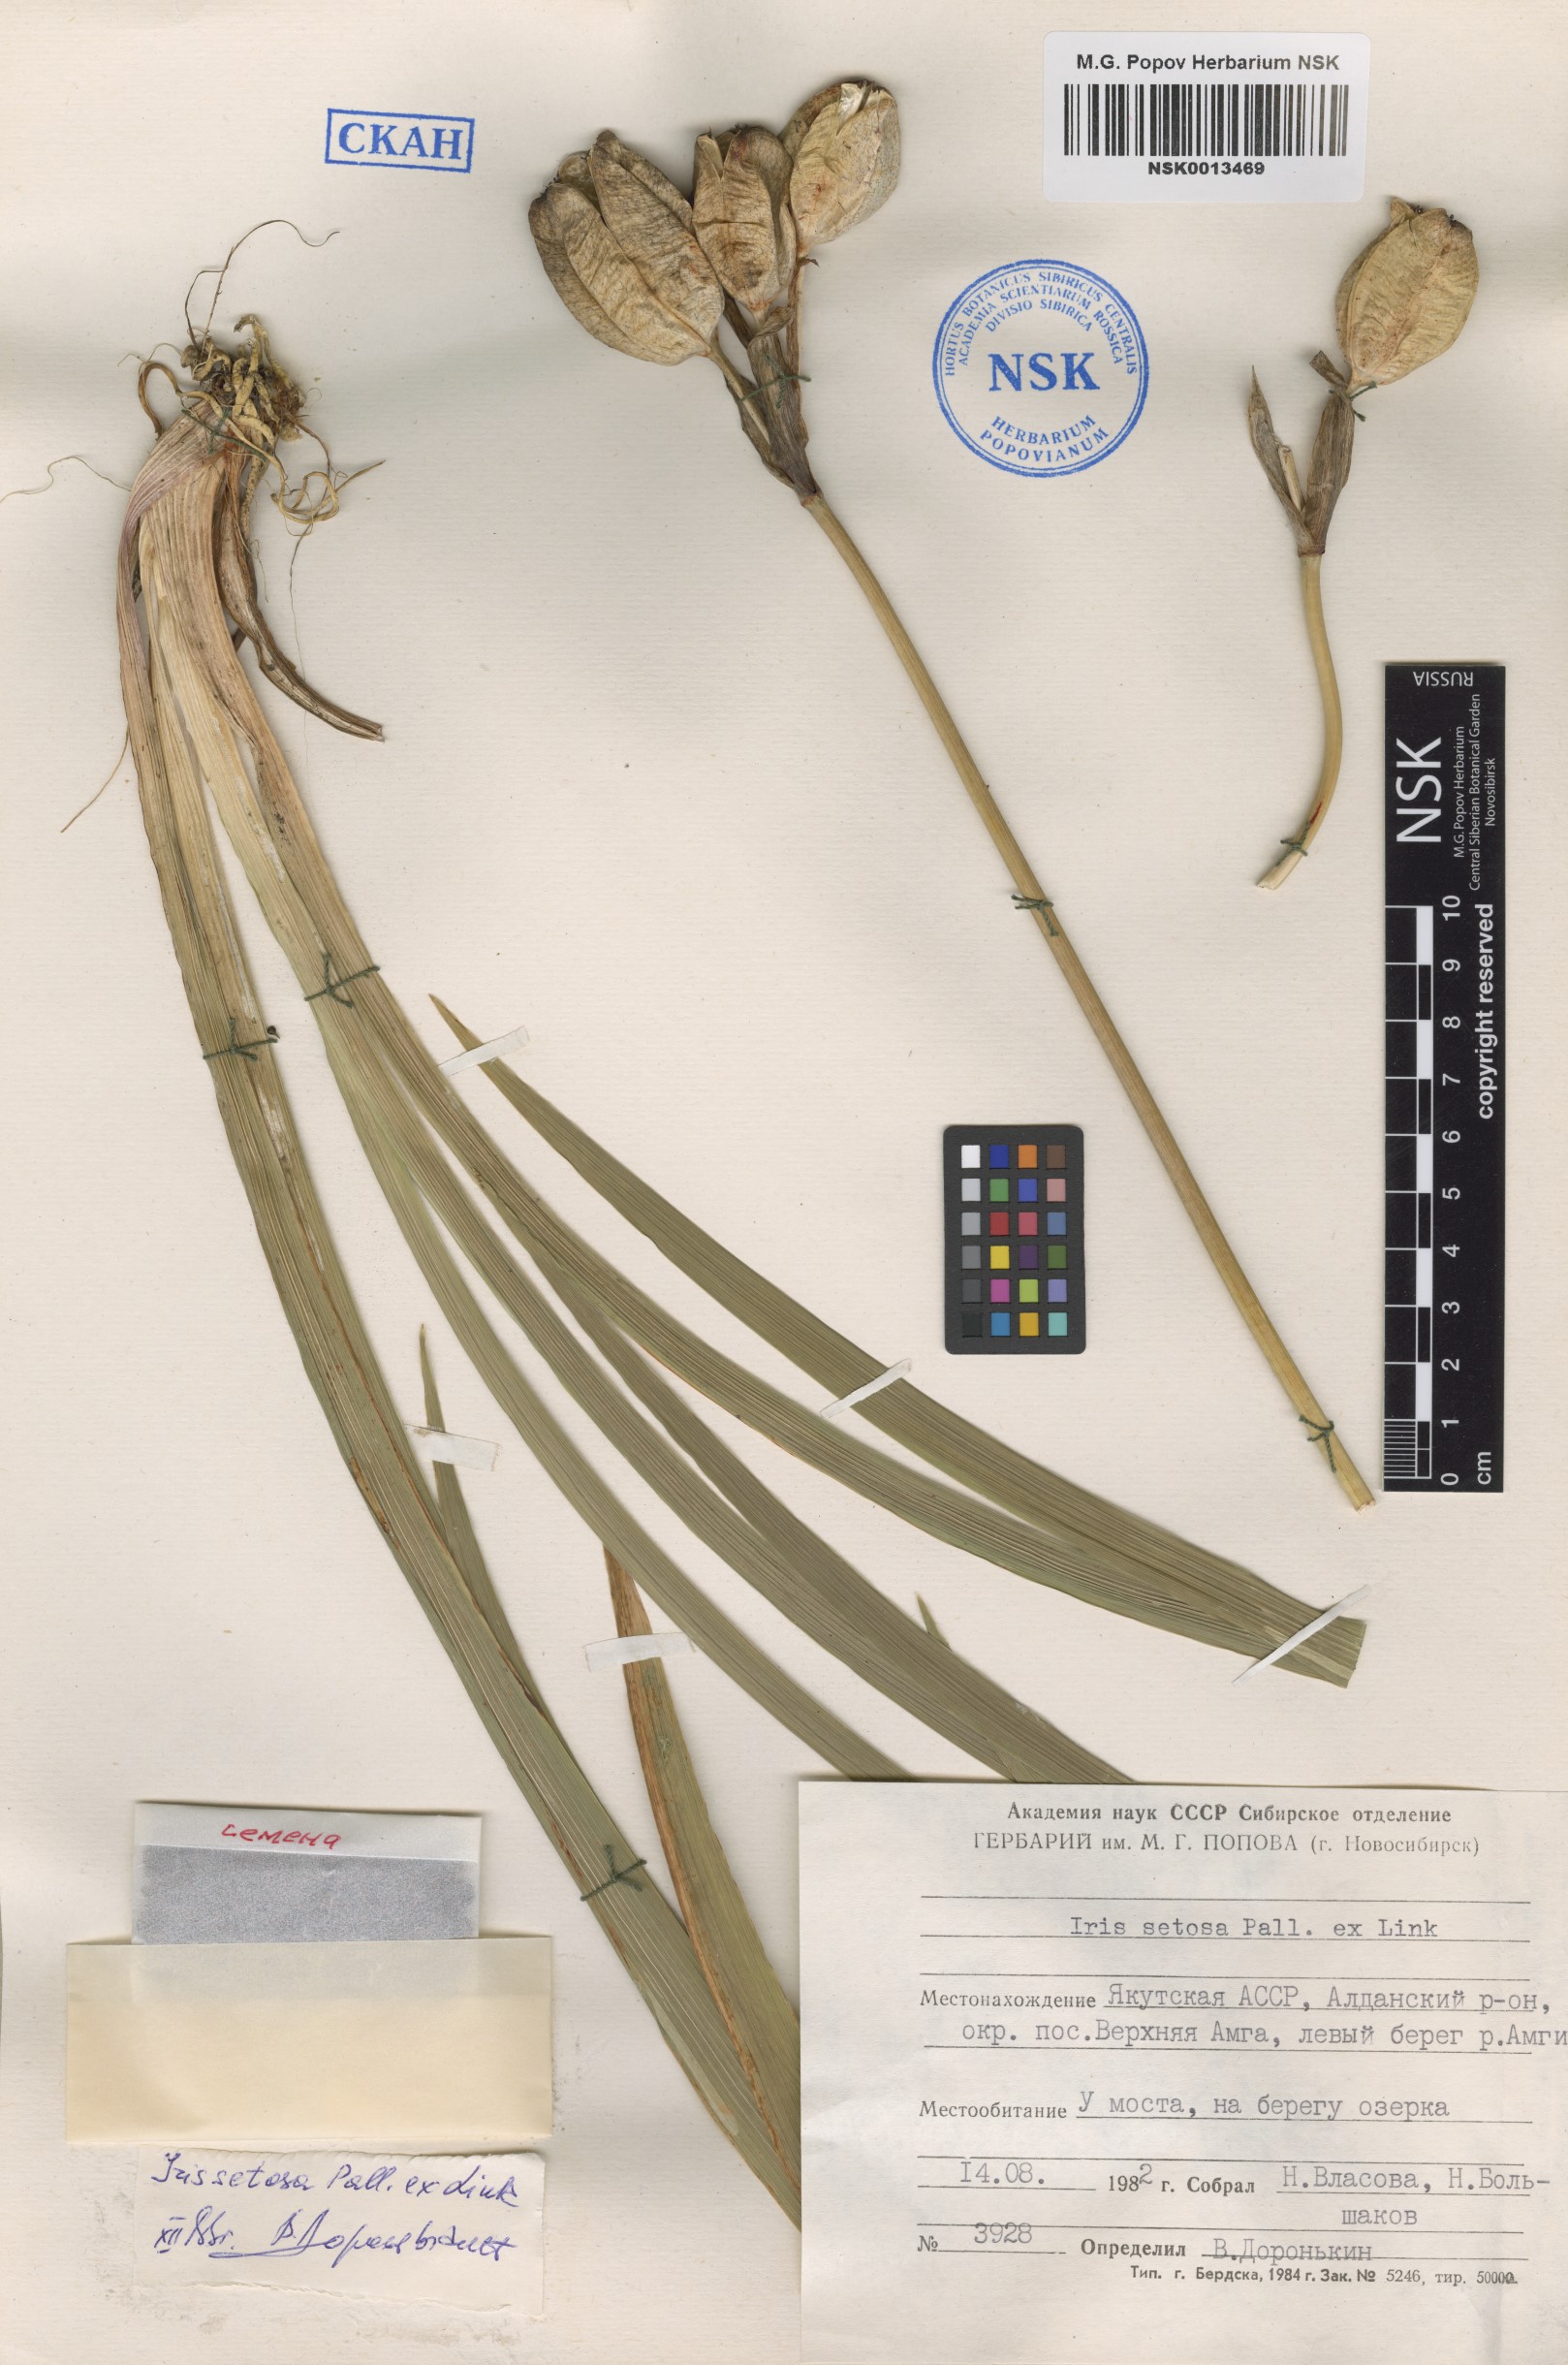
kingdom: Plantae
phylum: Tracheophyta
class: Liliopsida
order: Asparagales
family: Iridaceae
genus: Iris
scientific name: Iris setosa
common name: Arctic blue flag
